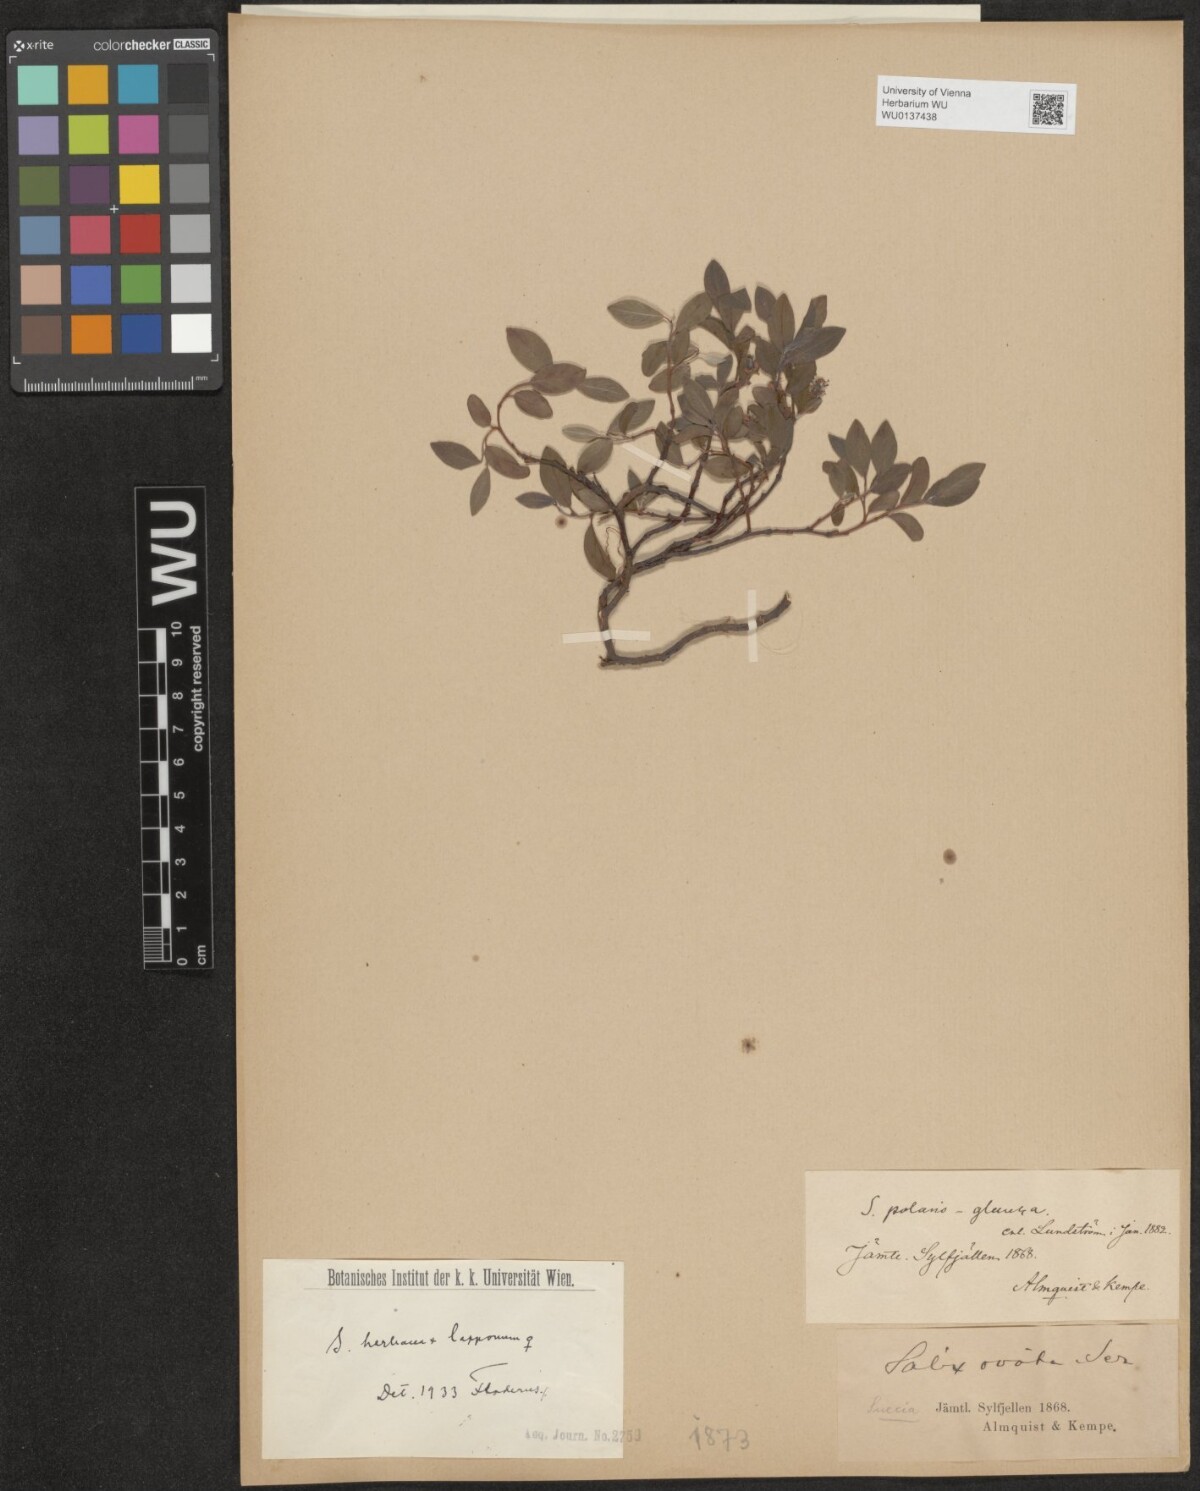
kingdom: Plantae
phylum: Tracheophyta
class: Magnoliopsida
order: Malpighiales
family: Salicaceae
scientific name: Salicaceae
